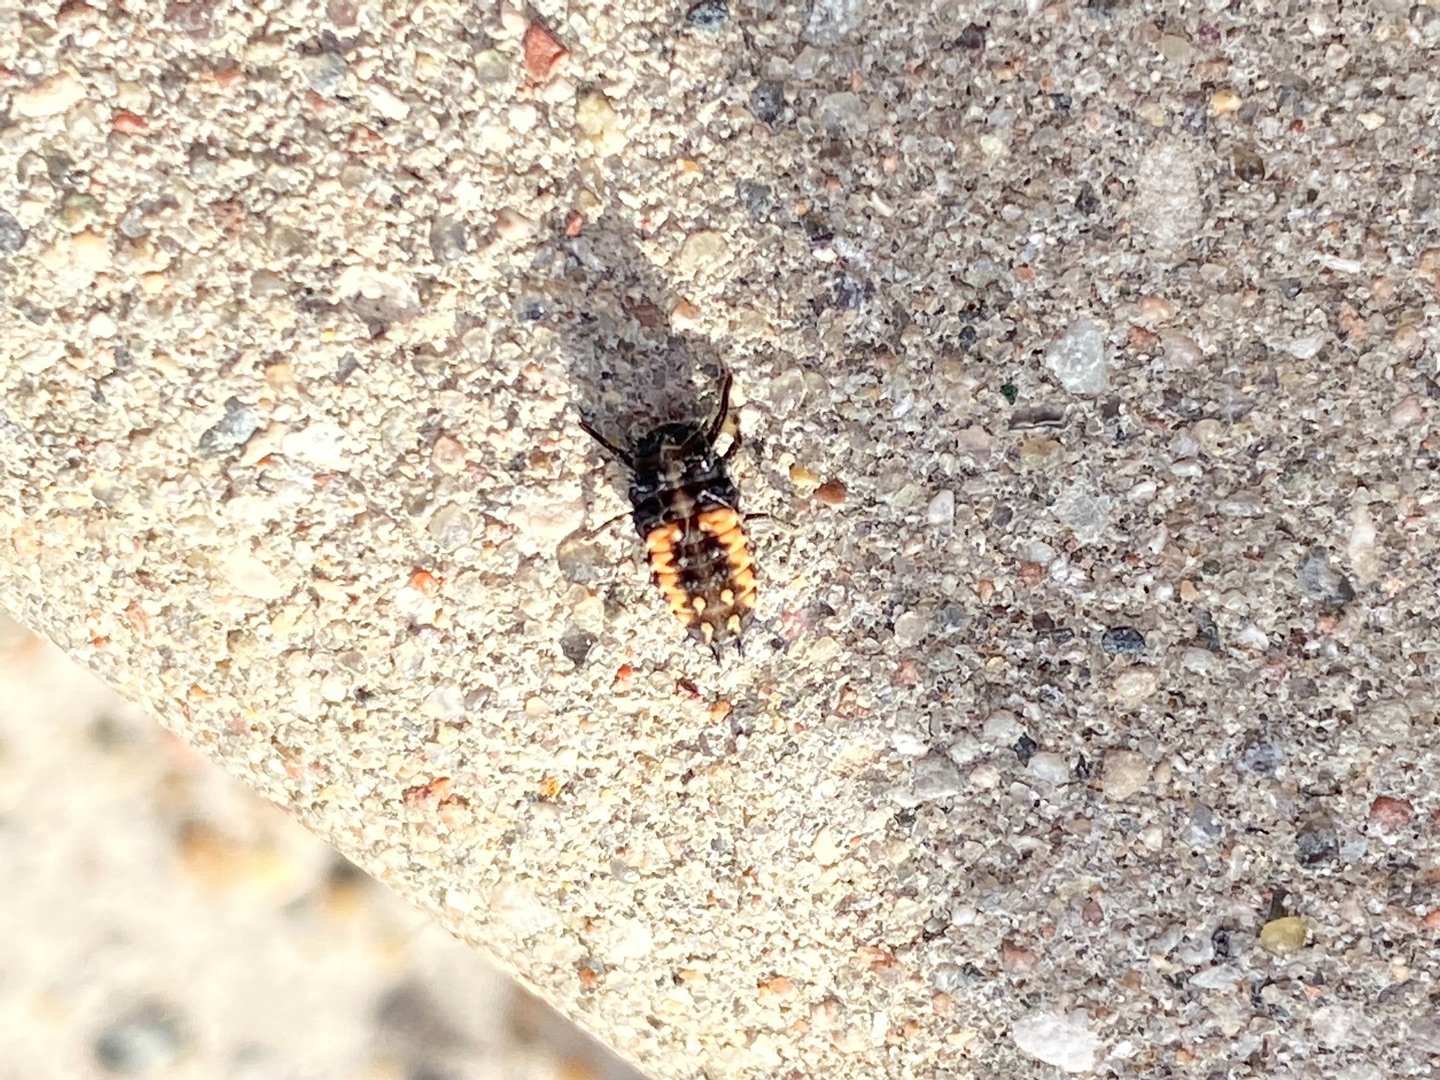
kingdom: Animalia
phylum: Arthropoda
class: Insecta
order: Coleoptera
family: Coccinellidae
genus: Harmonia
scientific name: Harmonia axyridis
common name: Harlekinmariehøne
